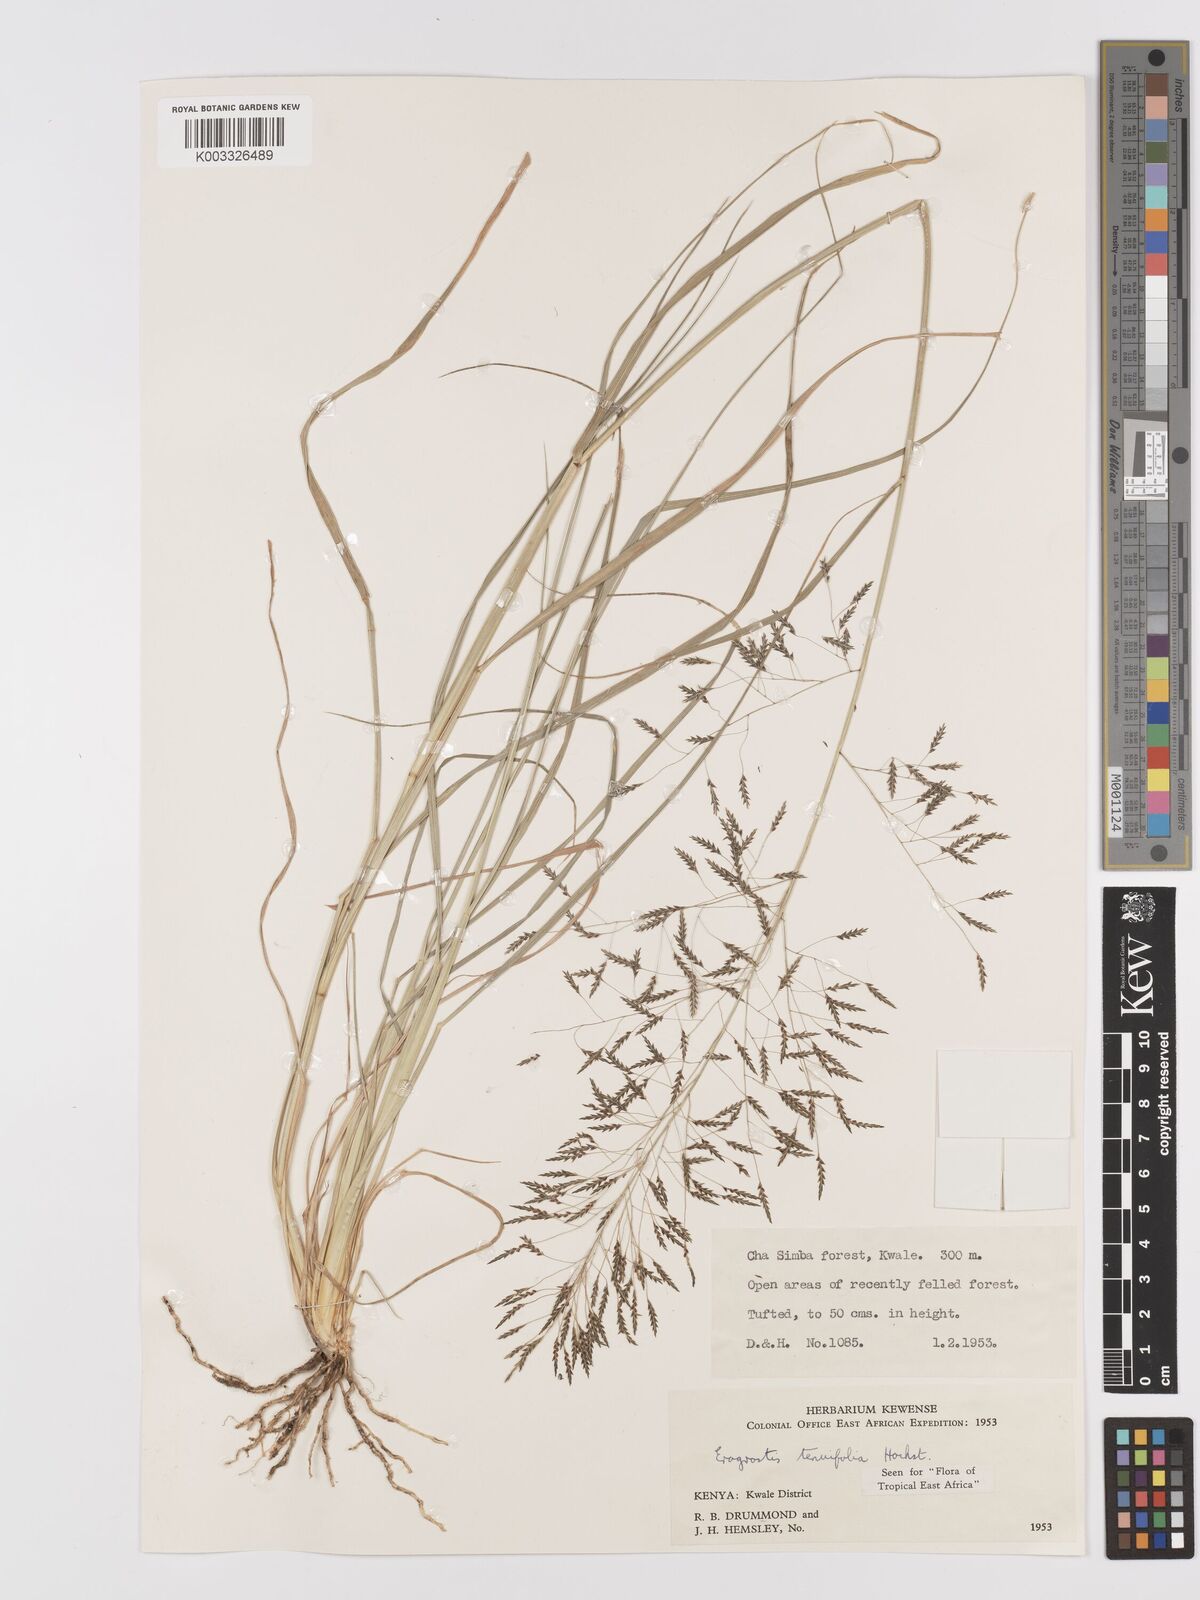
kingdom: Plantae
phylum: Tracheophyta
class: Liliopsida
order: Poales
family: Poaceae
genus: Eragrostis
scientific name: Eragrostis tenuifolia
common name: Elastic grass
